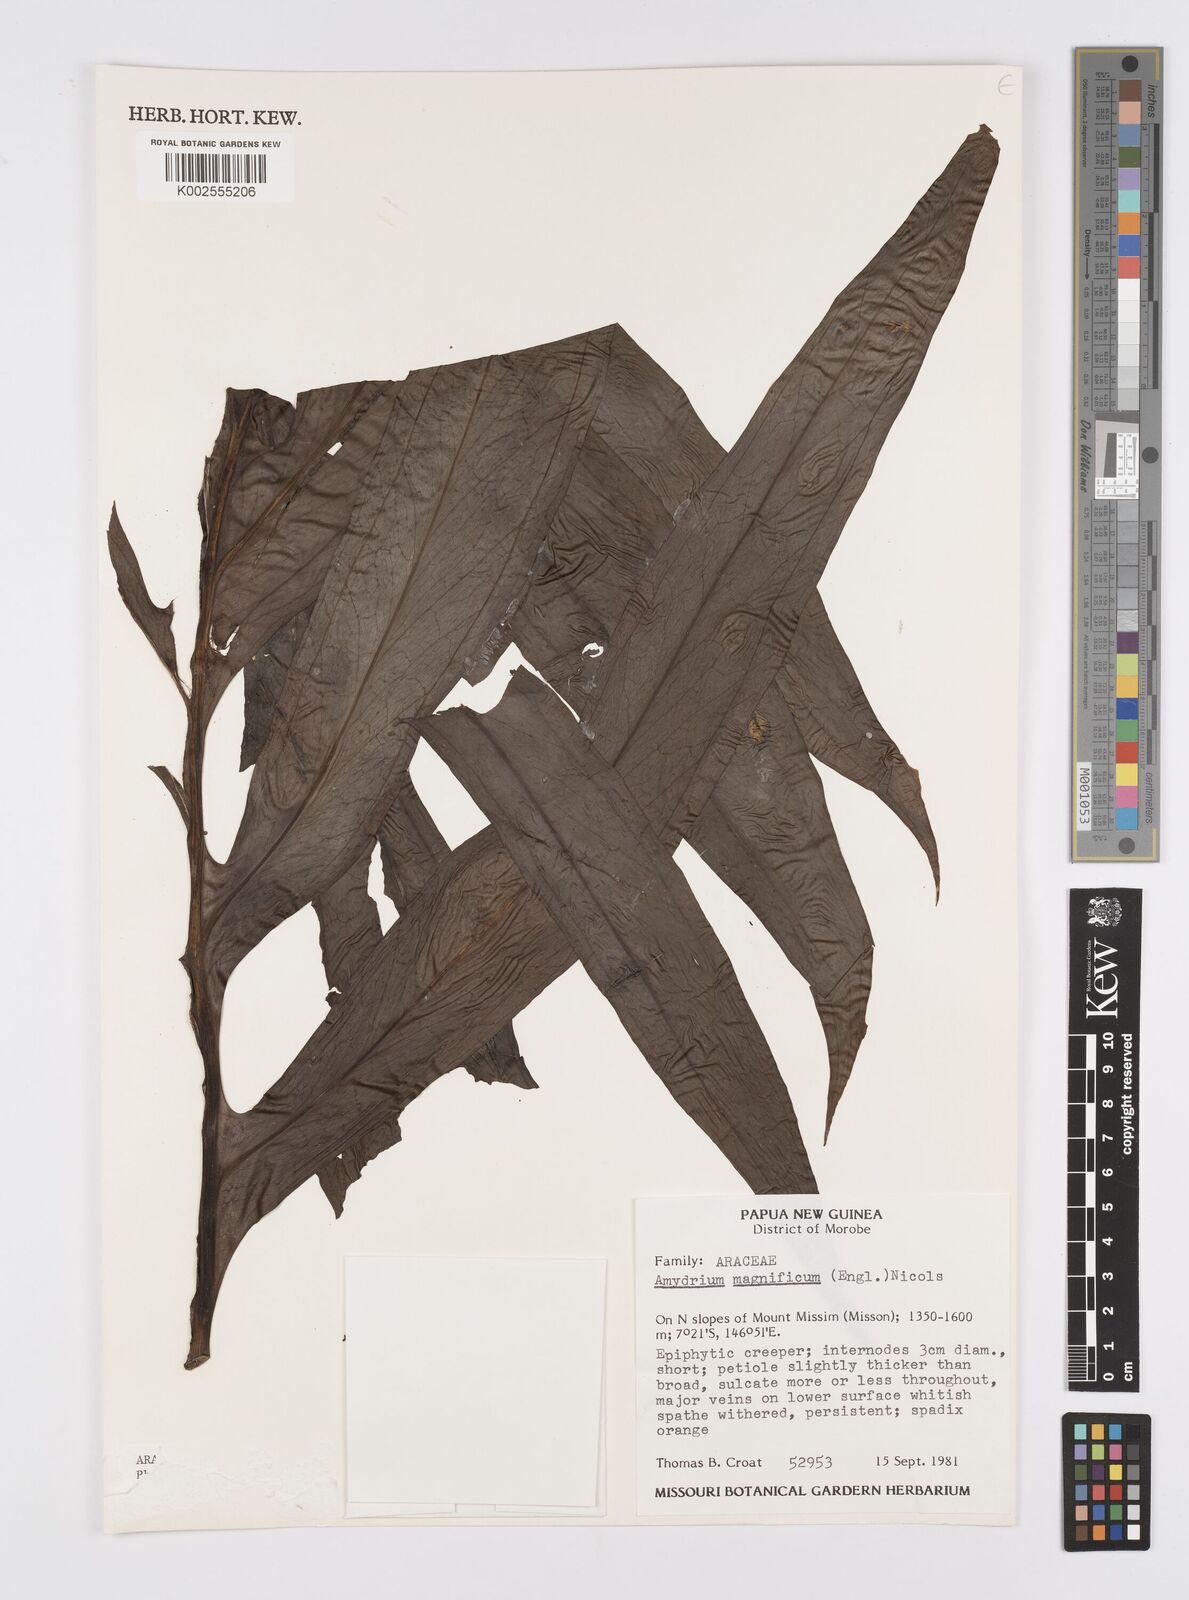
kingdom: Plantae
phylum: Tracheophyta
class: Liliopsida
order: Alismatales
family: Araceae
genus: Amydrium
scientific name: Amydrium zippelianum
